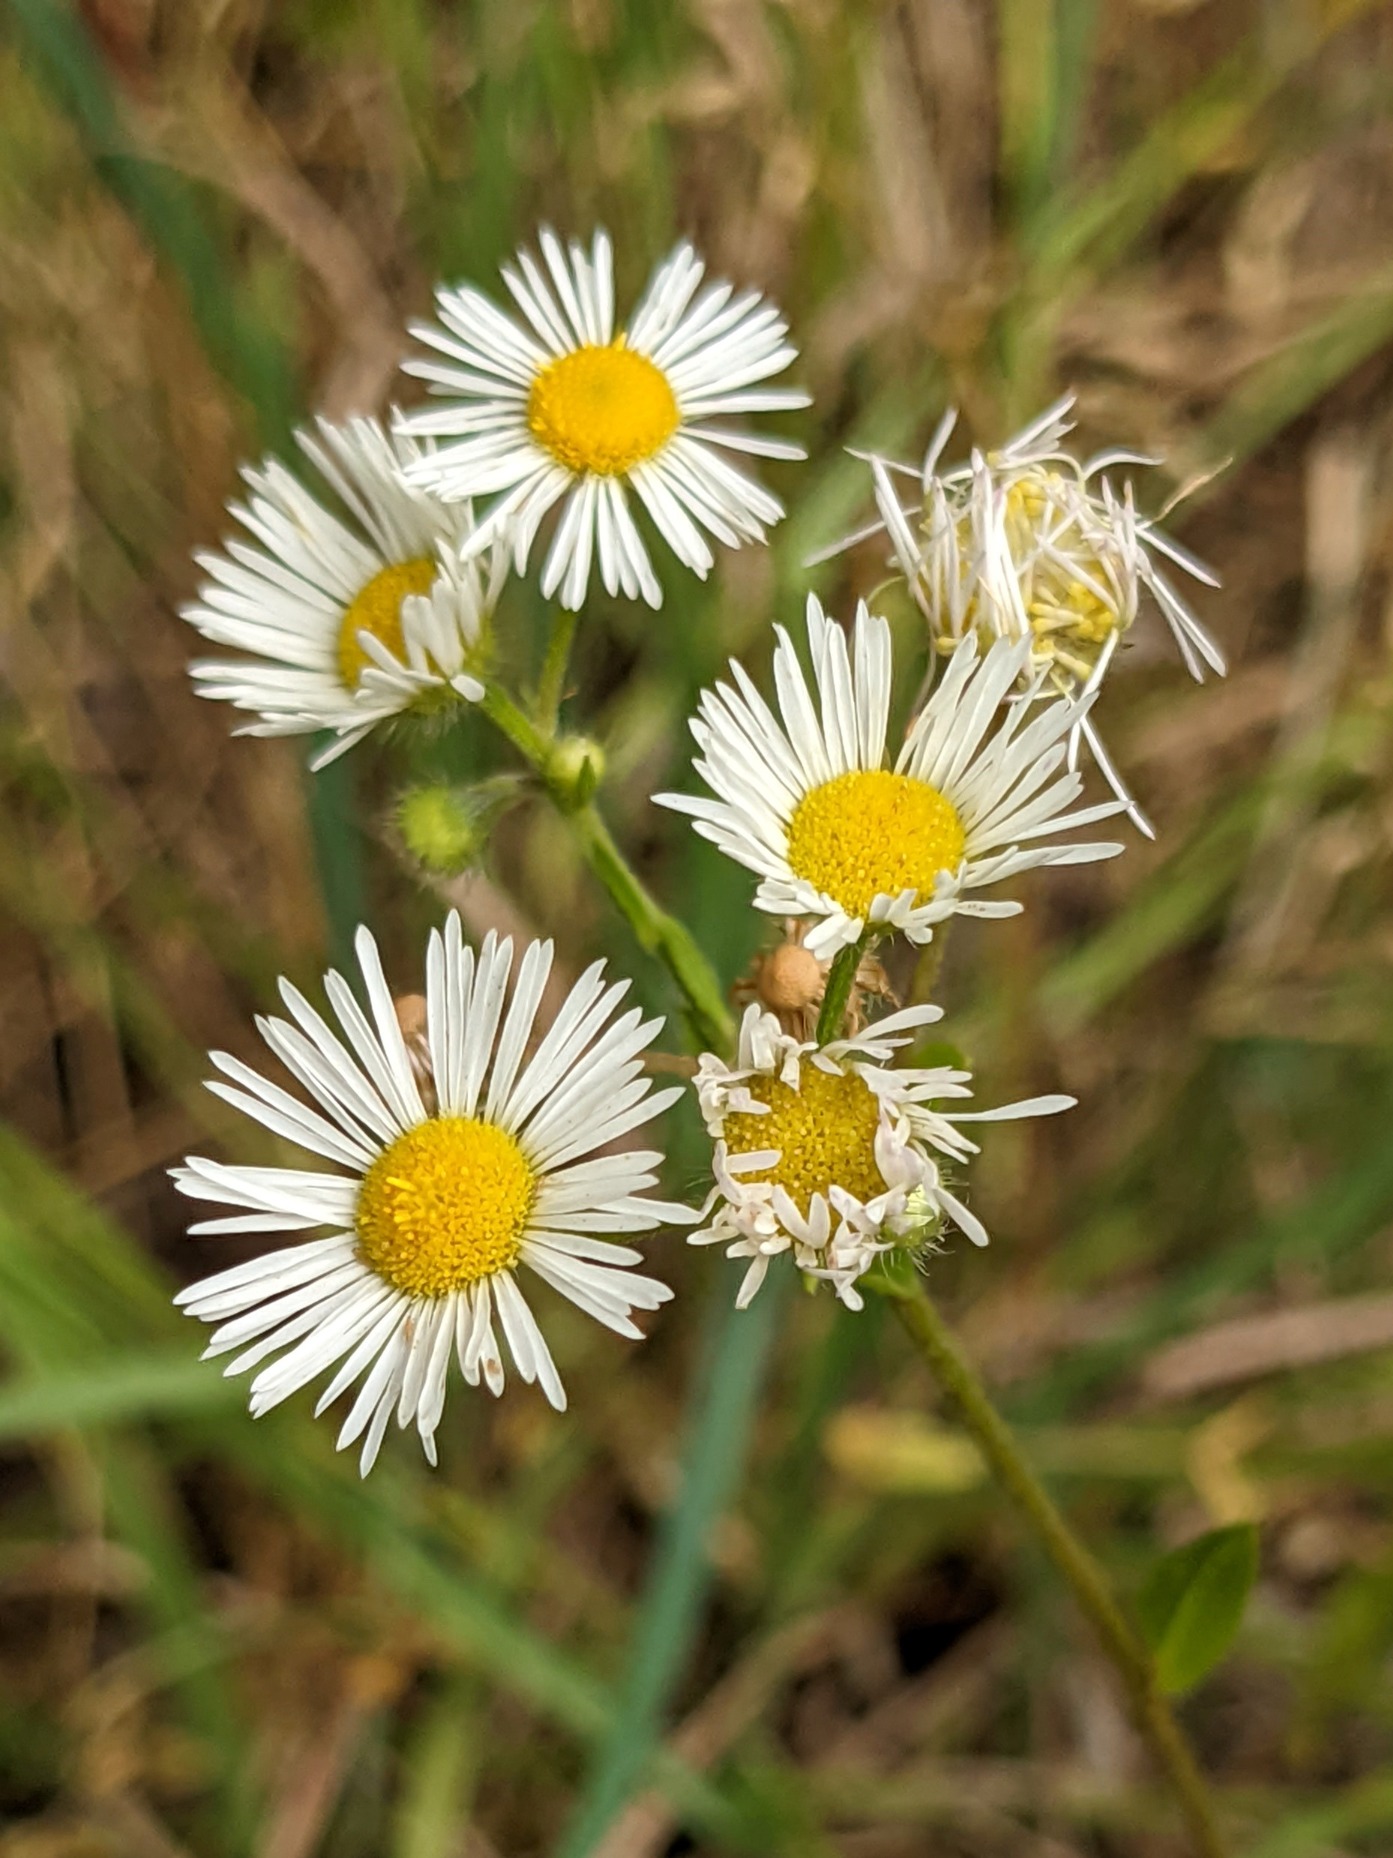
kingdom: Plantae
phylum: Tracheophyta
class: Magnoliopsida
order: Asterales
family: Asteraceae
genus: Erigeron
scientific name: Erigeron annuus
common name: Smalstråle
